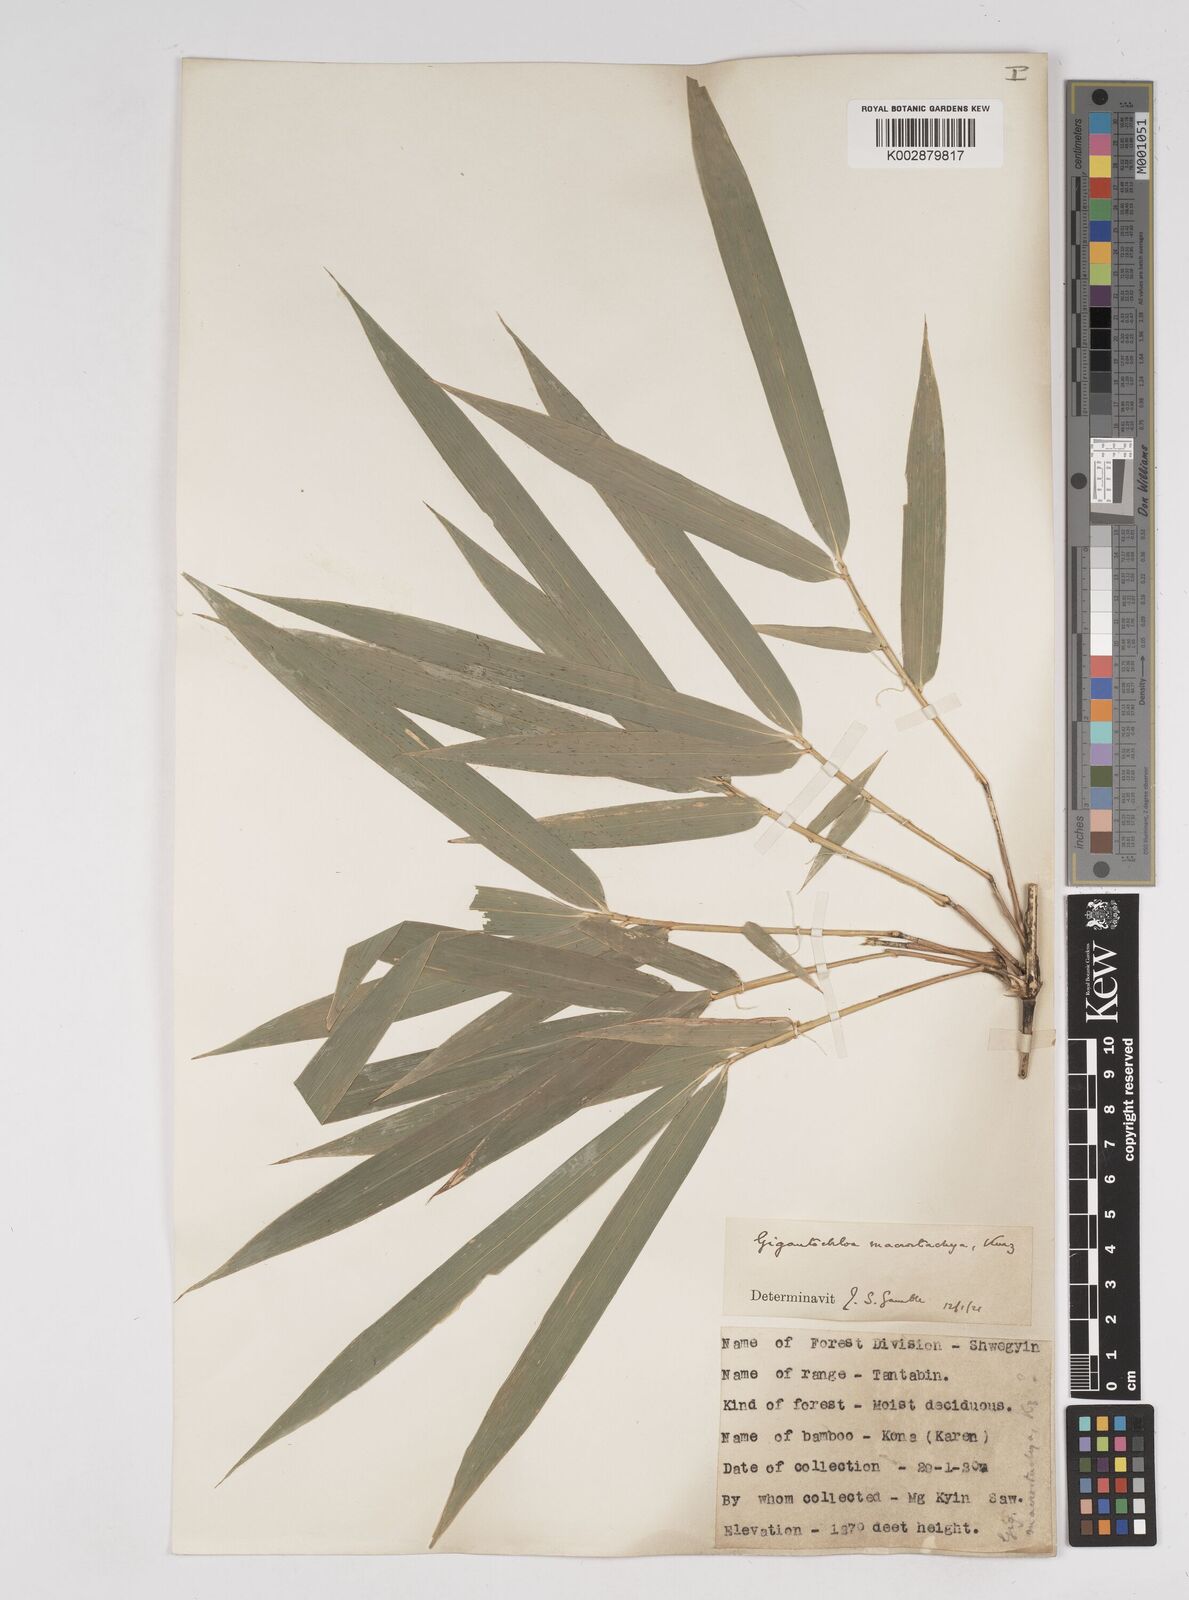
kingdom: Plantae
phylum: Tracheophyta
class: Liliopsida
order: Poales
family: Poaceae
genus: Gigantochloa
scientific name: Gigantochloa macrostachya
